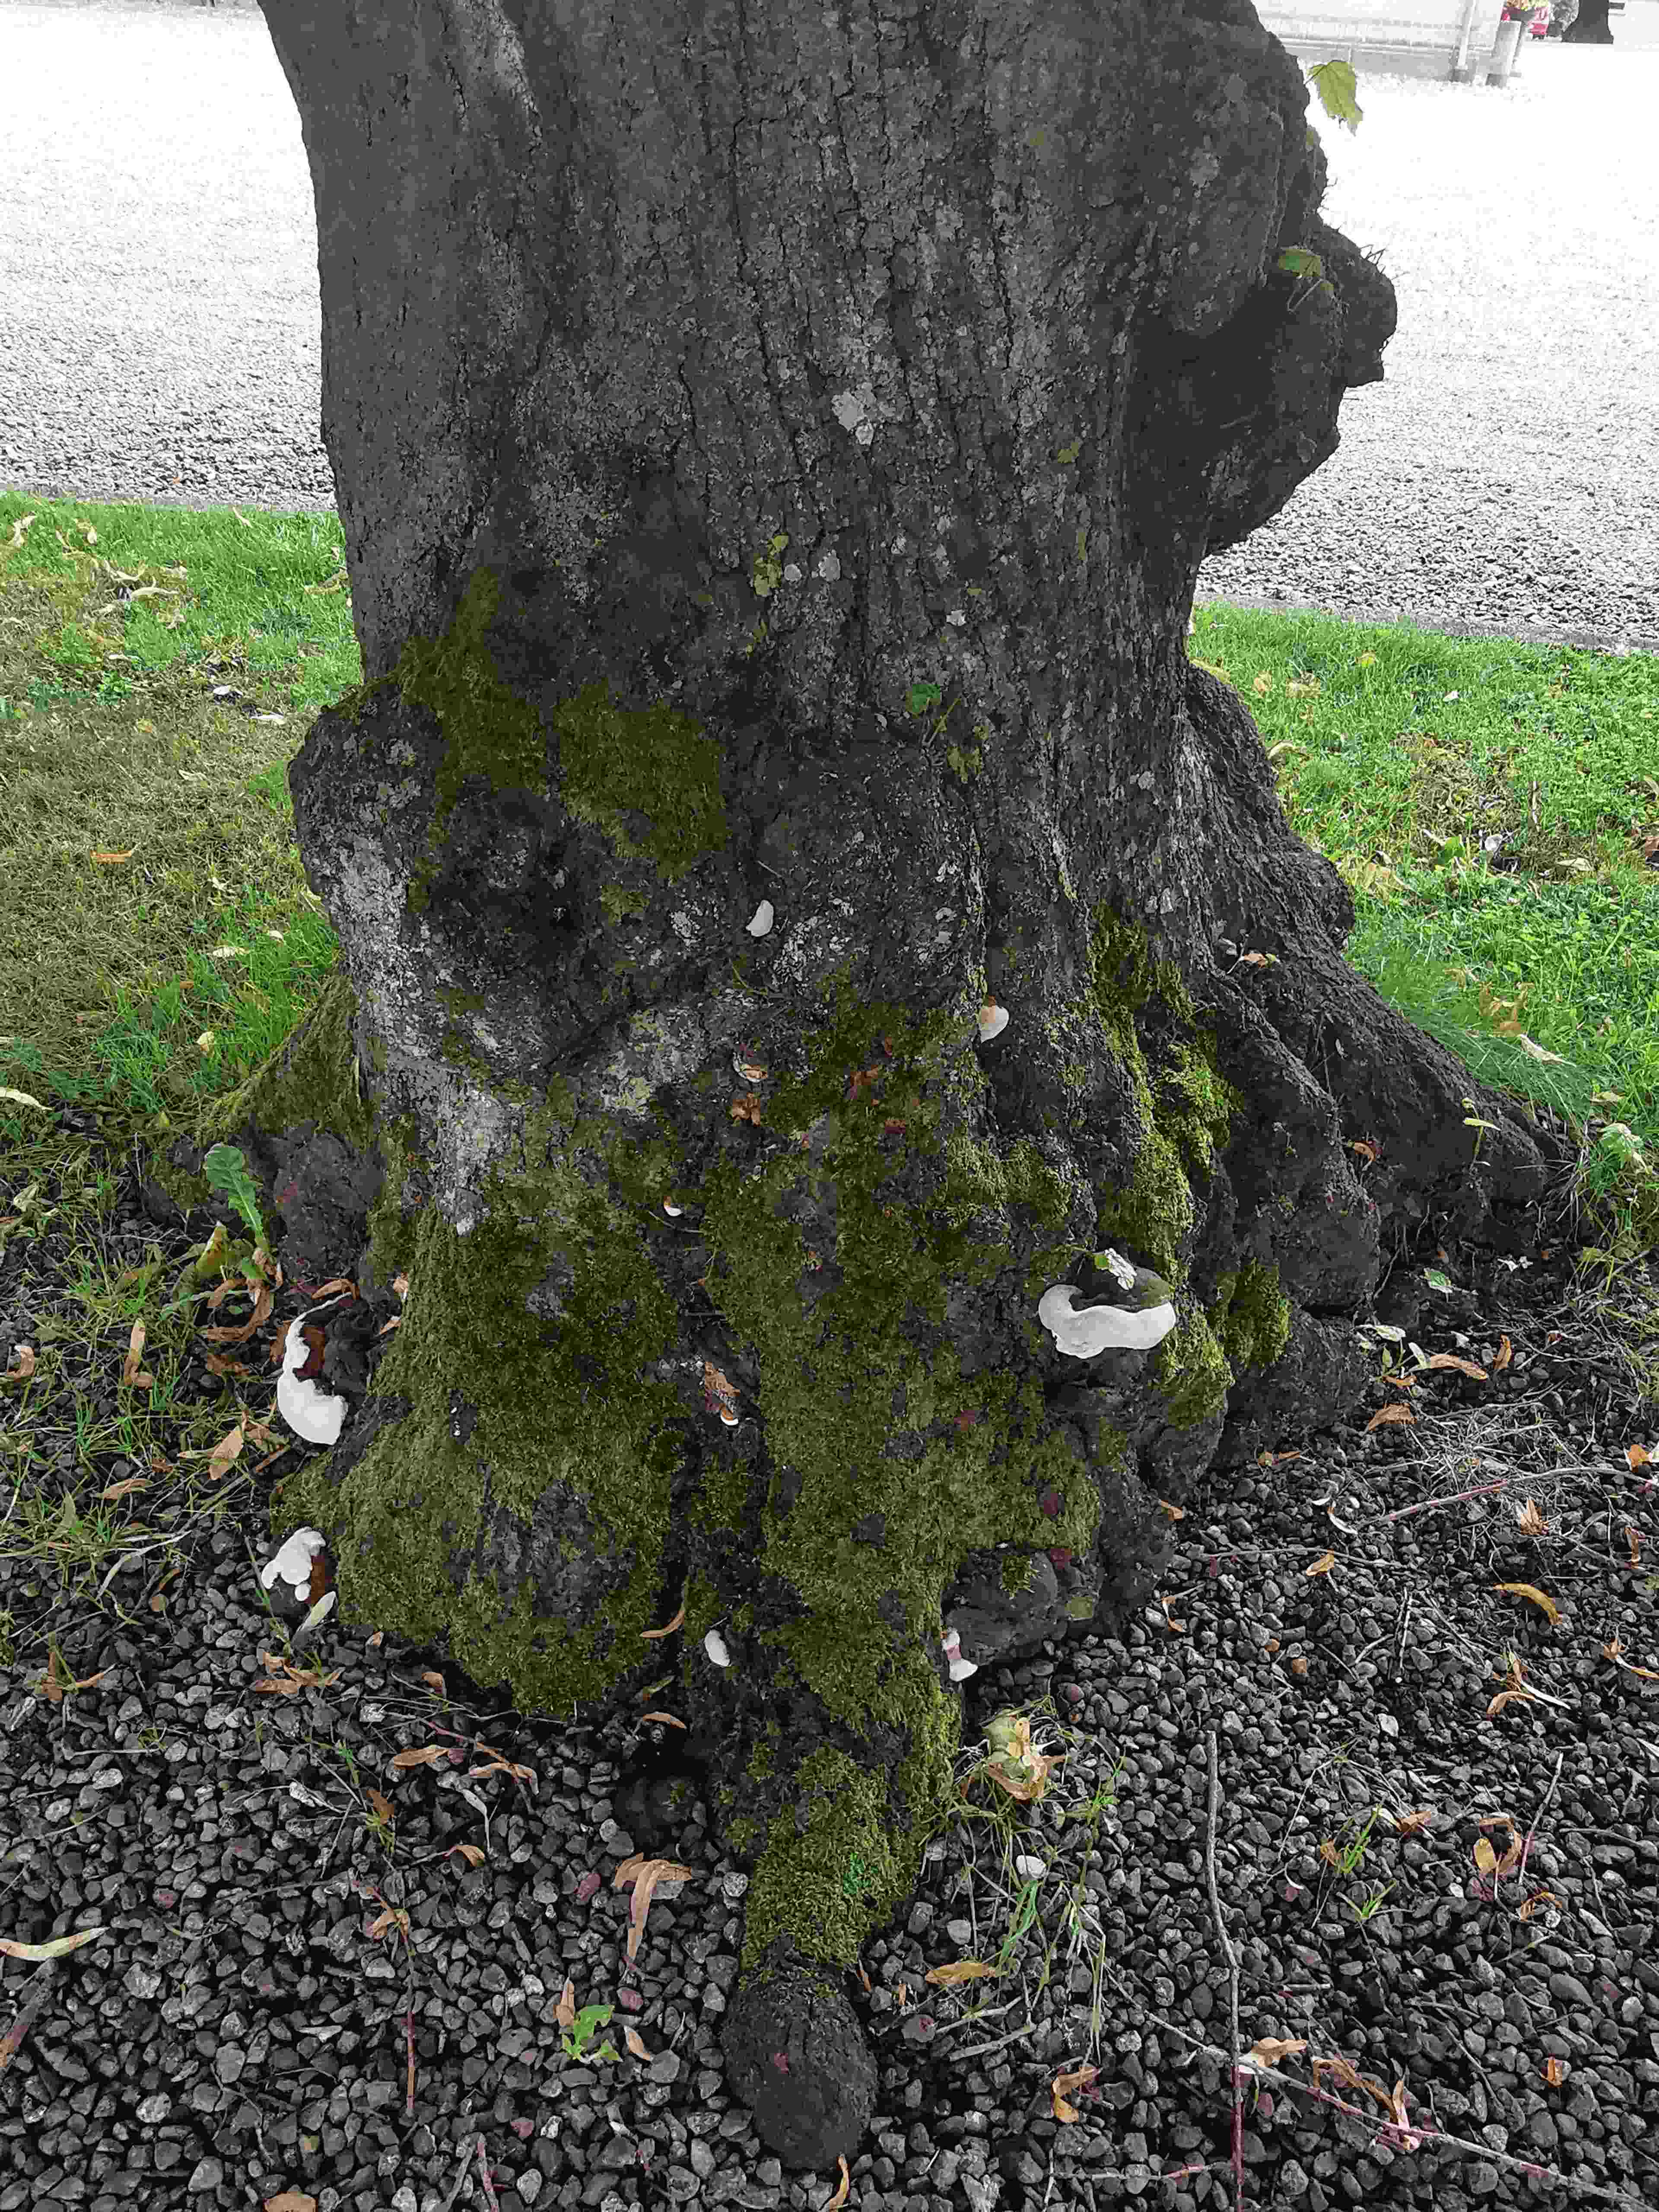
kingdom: Fungi
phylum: Basidiomycota
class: Agaricomycetes
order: Polyporales
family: Polyporaceae
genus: Ganoderma
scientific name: Ganoderma adspersum
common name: grov lakporesvamp
